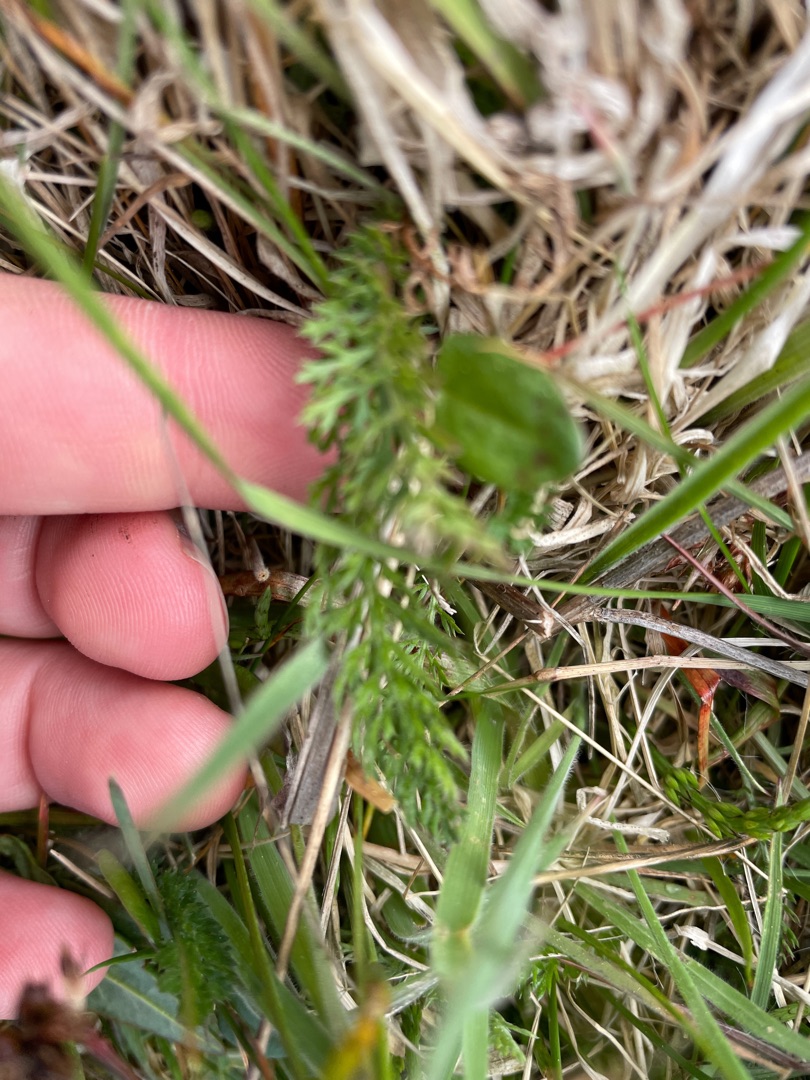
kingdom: Plantae
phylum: Tracheophyta
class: Magnoliopsida
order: Asterales
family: Asteraceae
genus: Achillea
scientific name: Achillea millefolium
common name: Almindelig røllike
